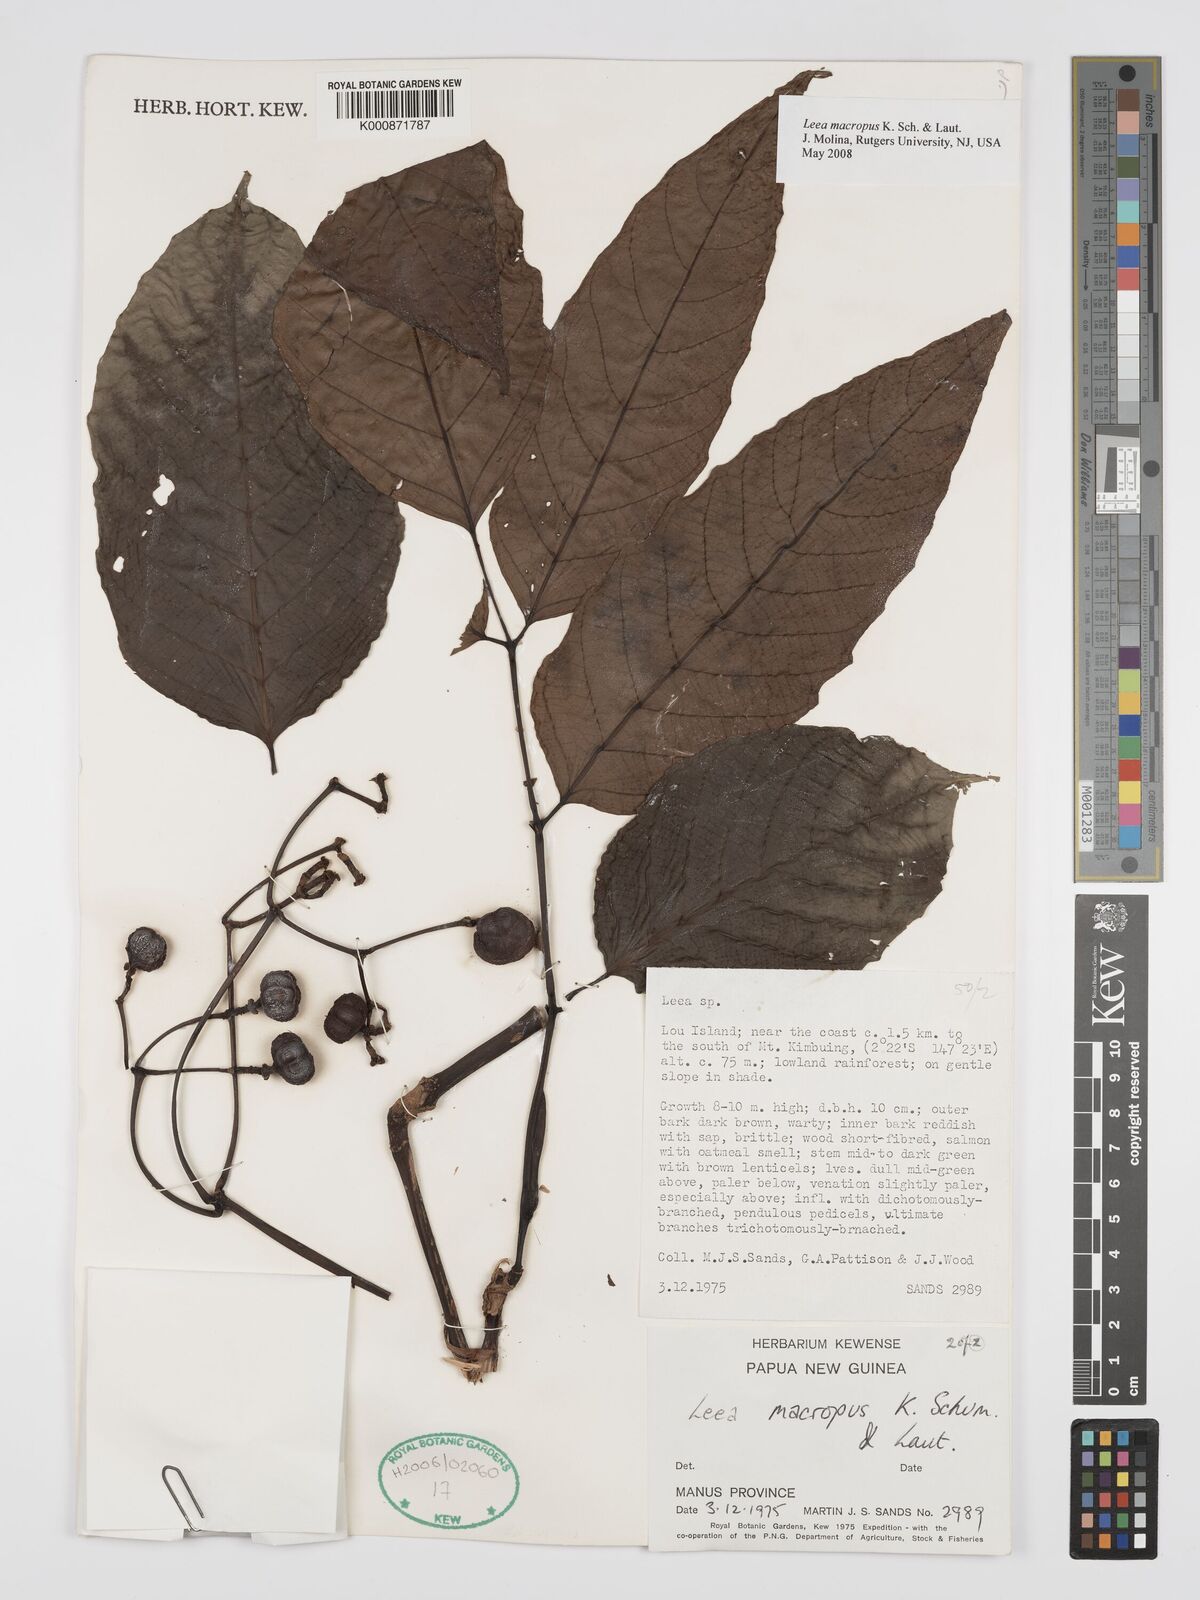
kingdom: Plantae
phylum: Tracheophyta
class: Magnoliopsida
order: Vitales
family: Vitaceae
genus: Leea
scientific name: Leea macropus
